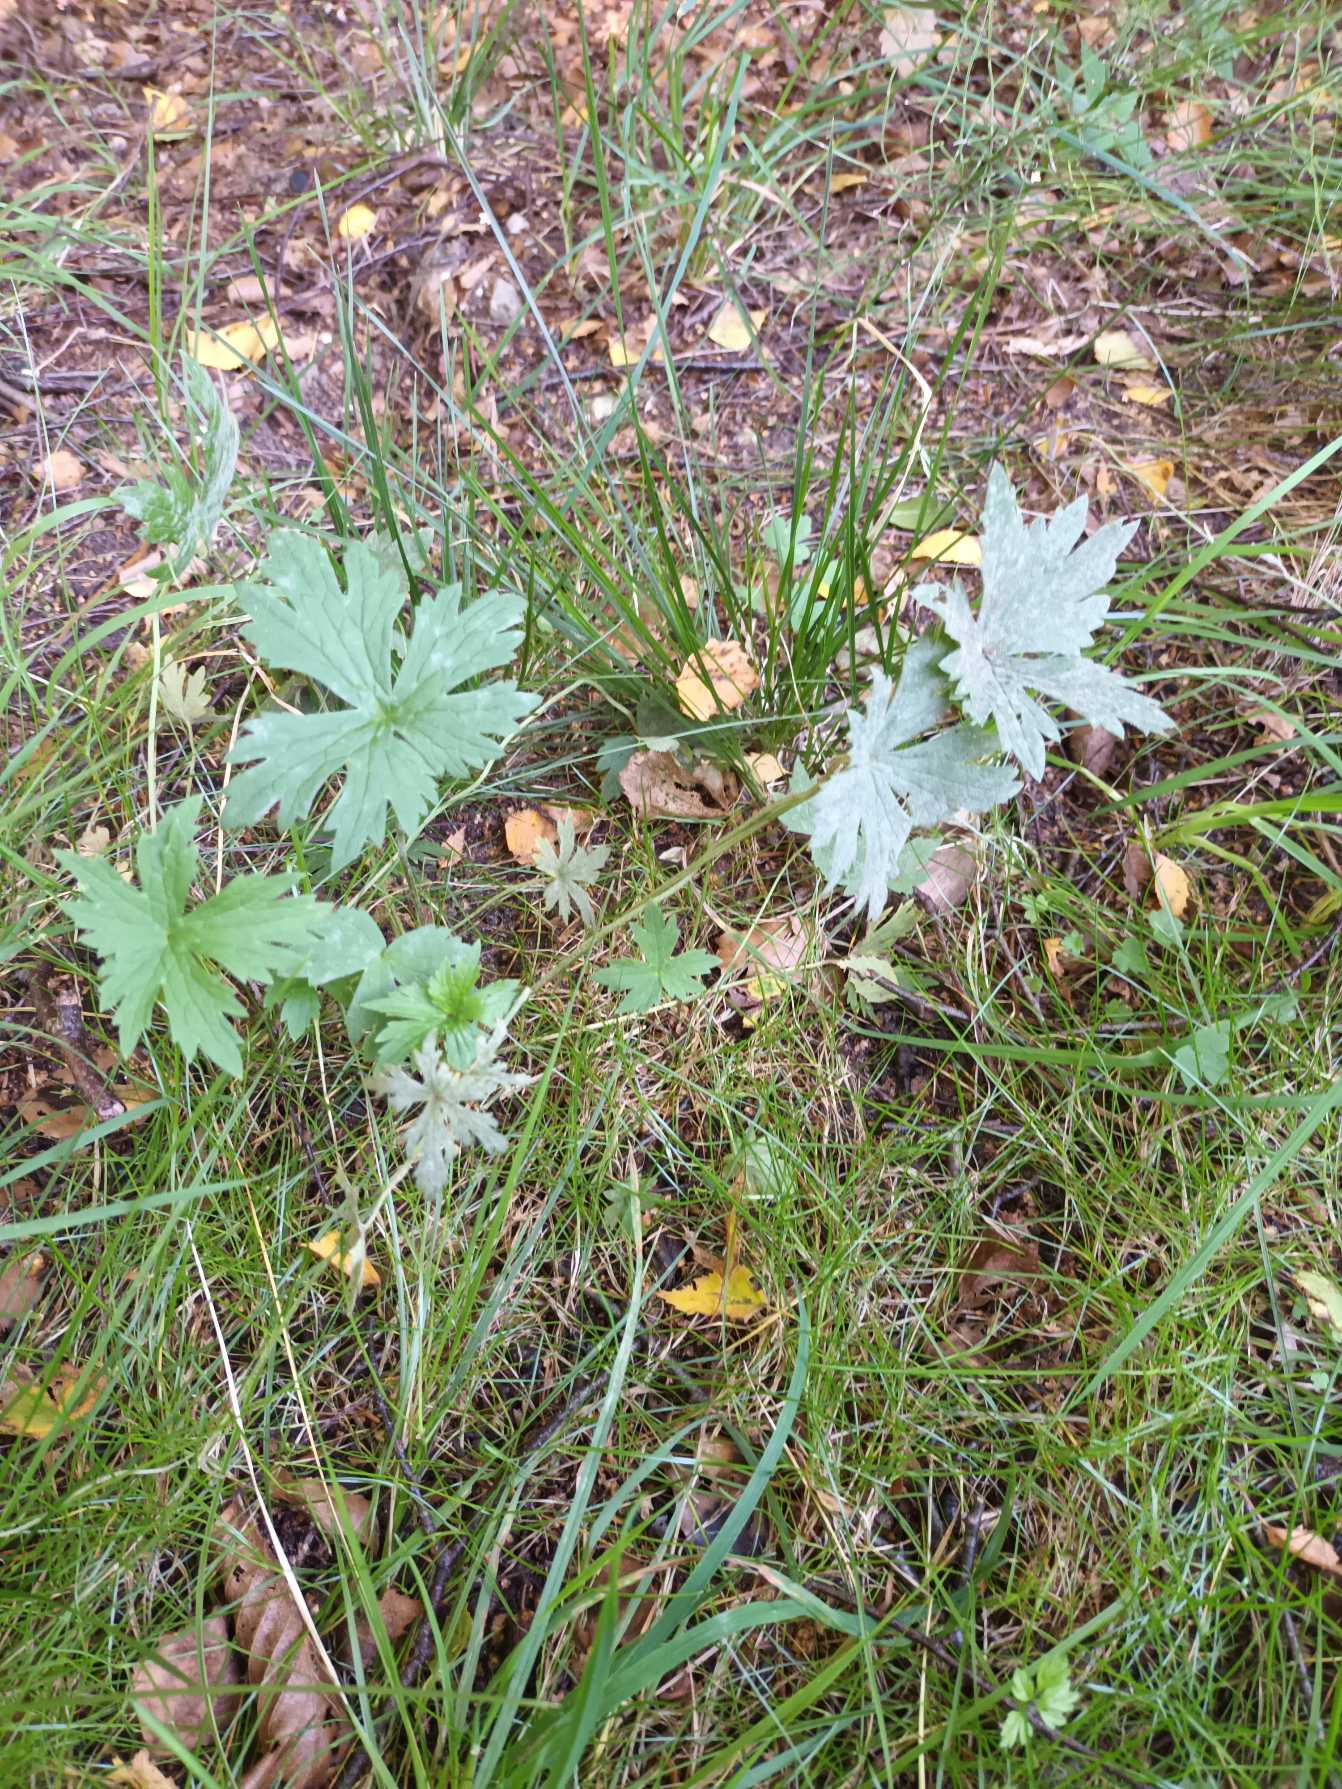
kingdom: Plantae
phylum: Tracheophyta
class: Magnoliopsida
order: Ranunculales
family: Ranunculaceae
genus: Ranunculus
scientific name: Ranunculus acris
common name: Bidende ranunkel
